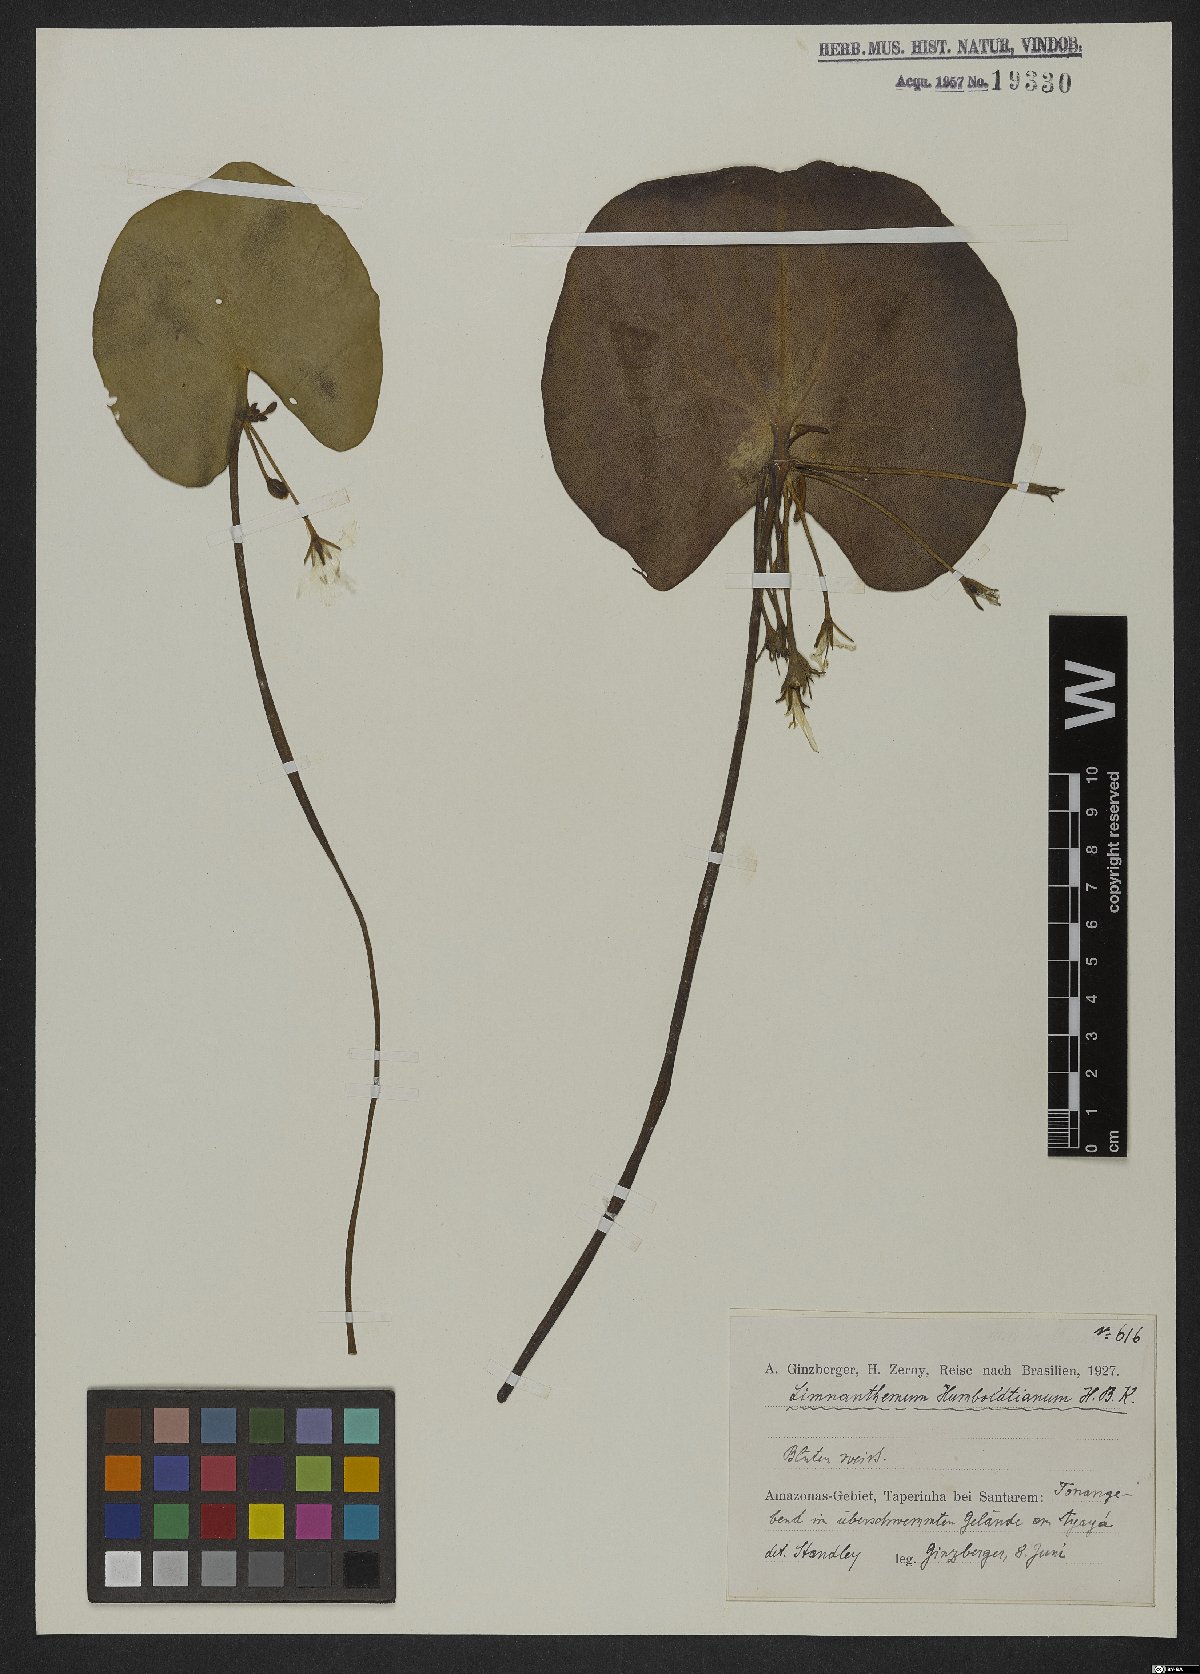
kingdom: Plantae
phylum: Tracheophyta
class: Magnoliopsida
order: Asterales
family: Menyanthaceae
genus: Nymphoides
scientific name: Nymphoides humboldtiana
